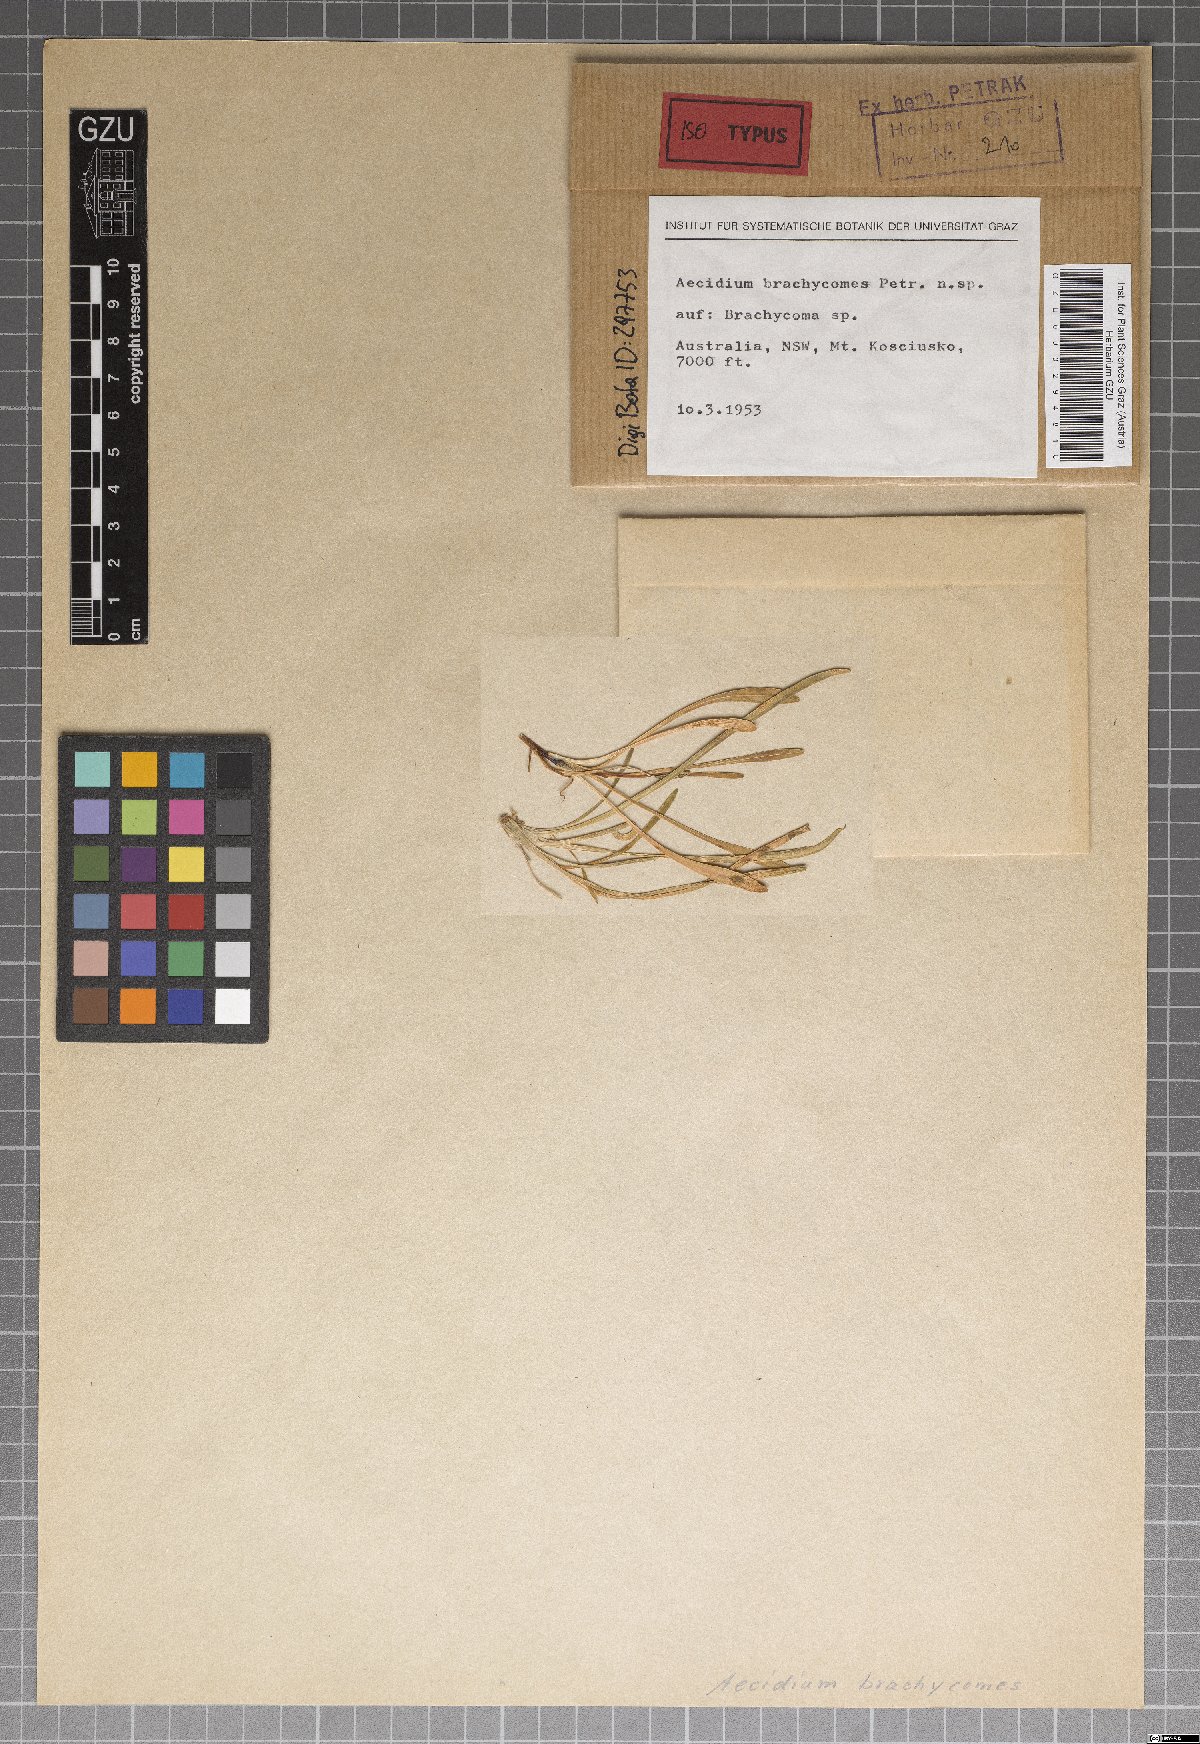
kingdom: Fungi
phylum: Basidiomycota
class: Pucciniomycetes
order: Pucciniales
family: Pucciniaceae
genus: Aecidium
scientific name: Aecidium brachycomes
